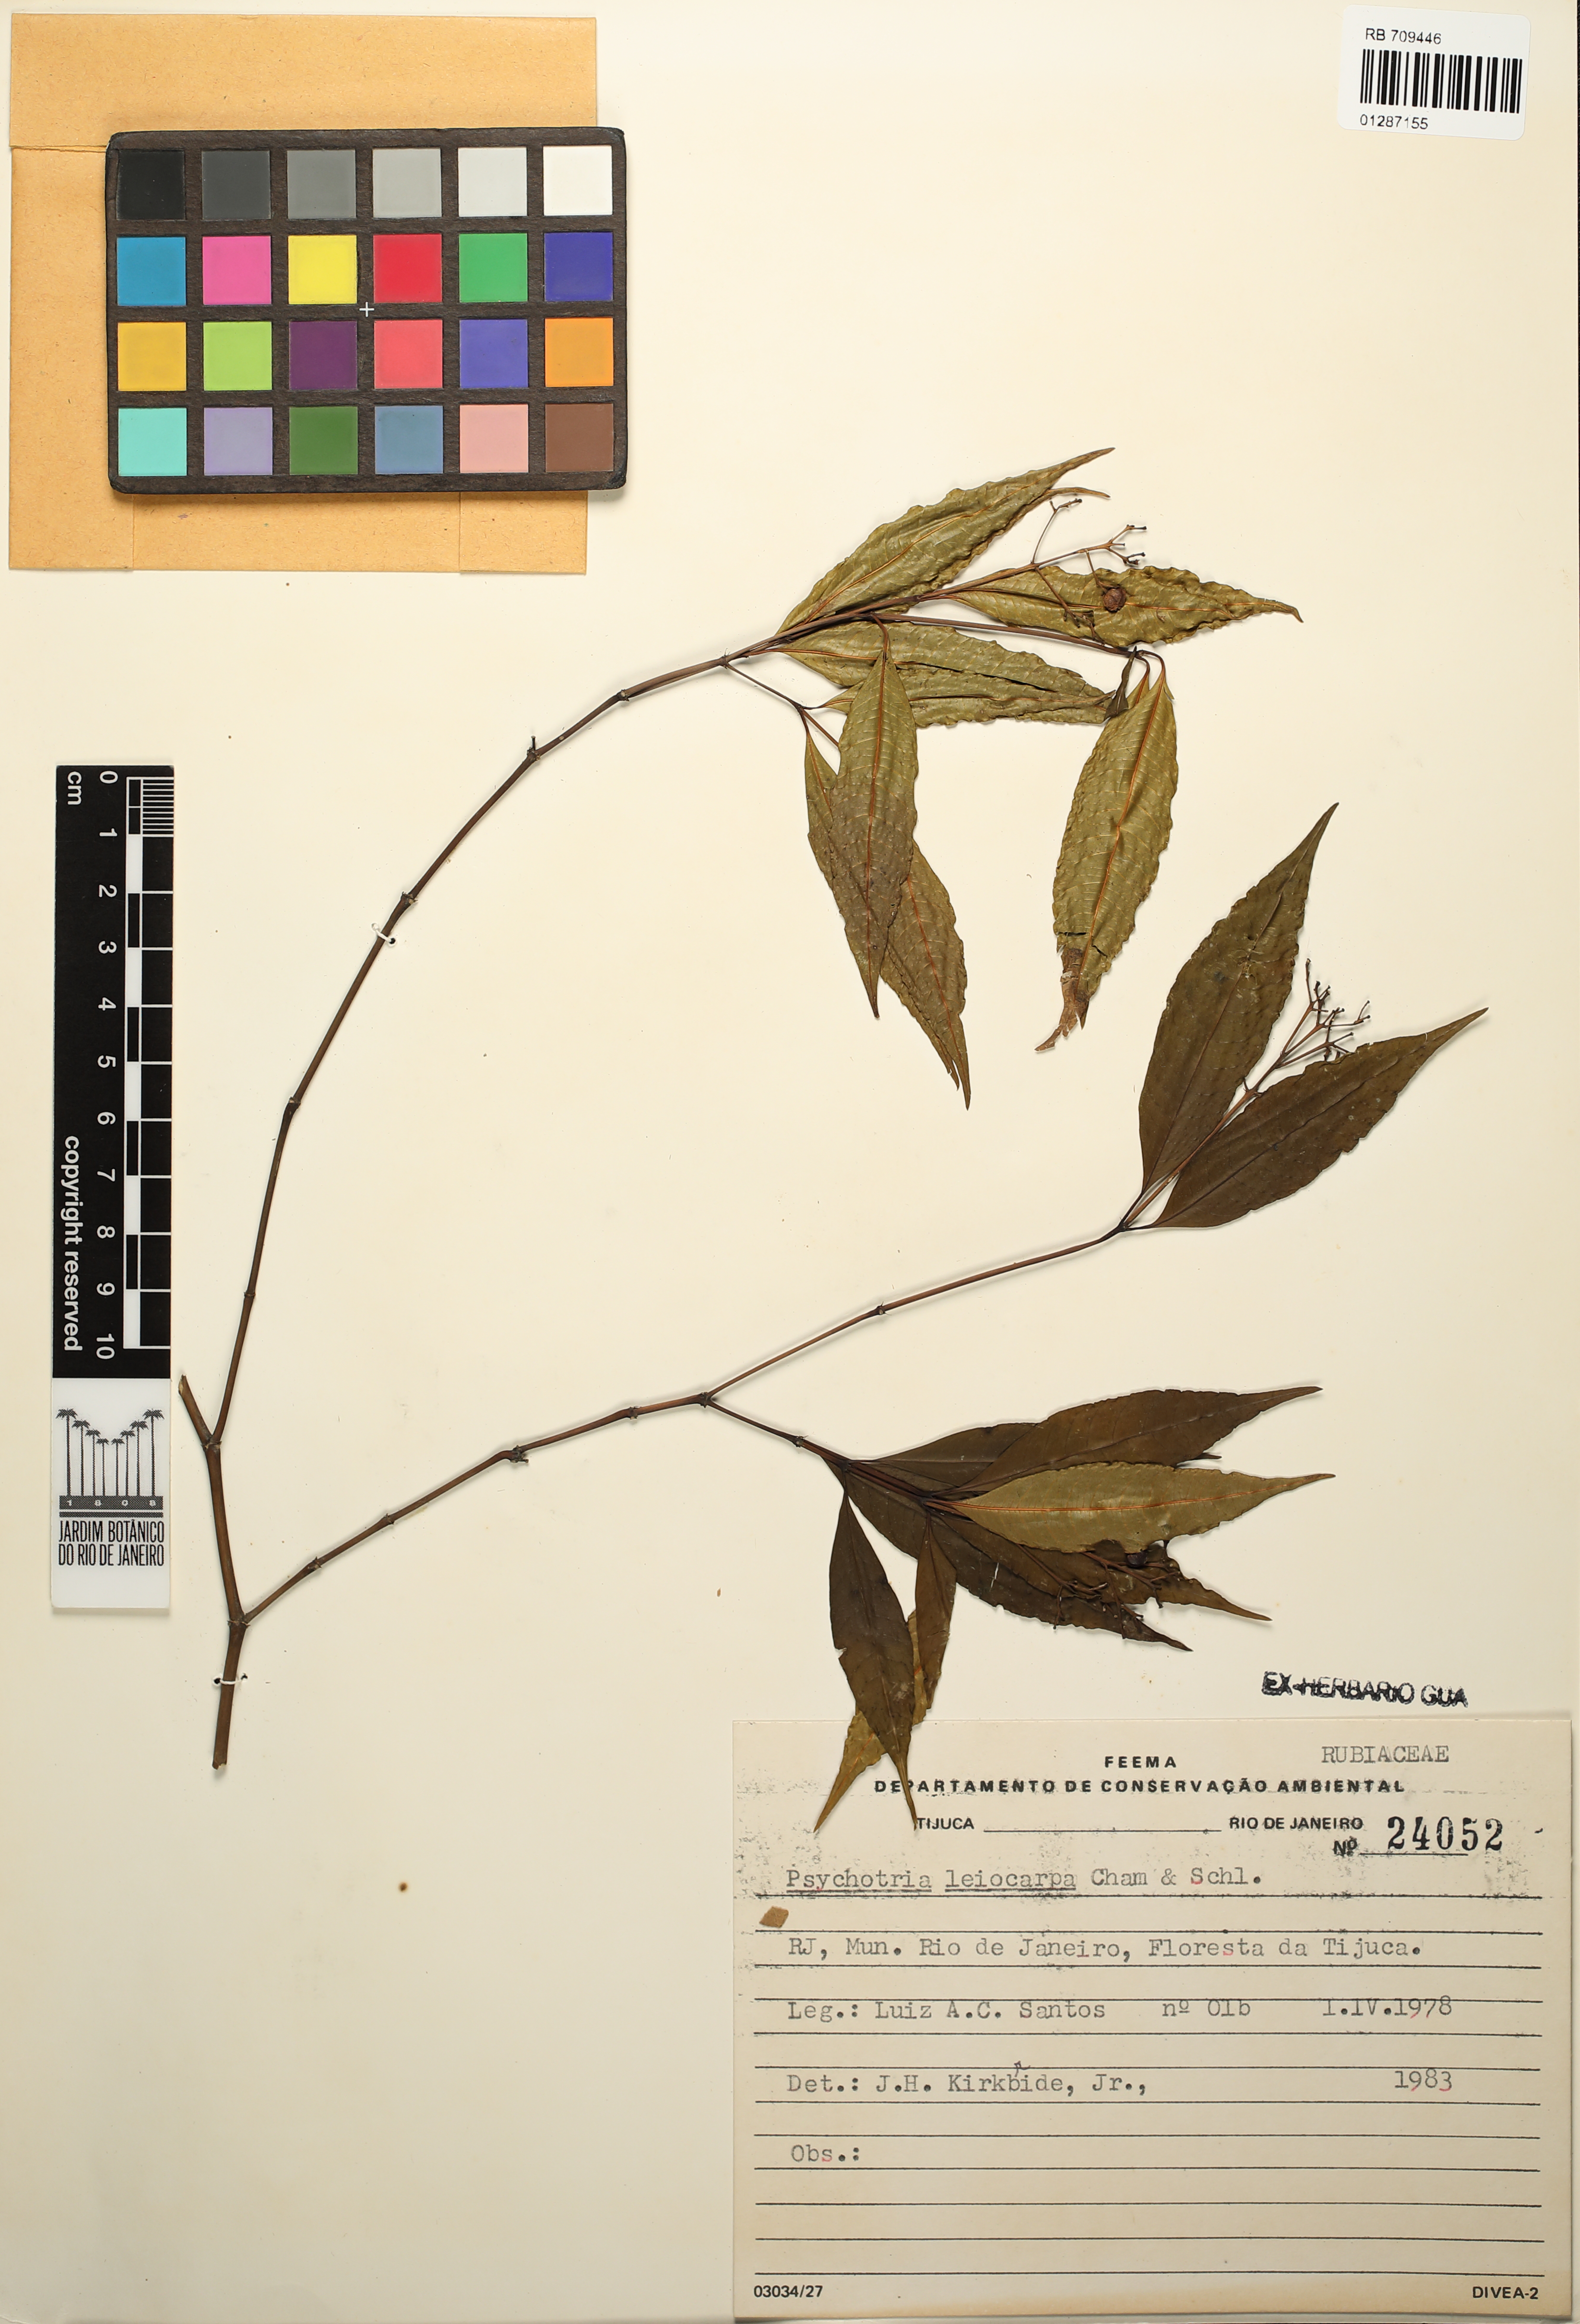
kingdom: Plantae
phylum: Tracheophyta
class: Magnoliopsida
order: Gentianales
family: Rubiaceae
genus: Psychotria
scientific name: Psychotria leiocarpa
